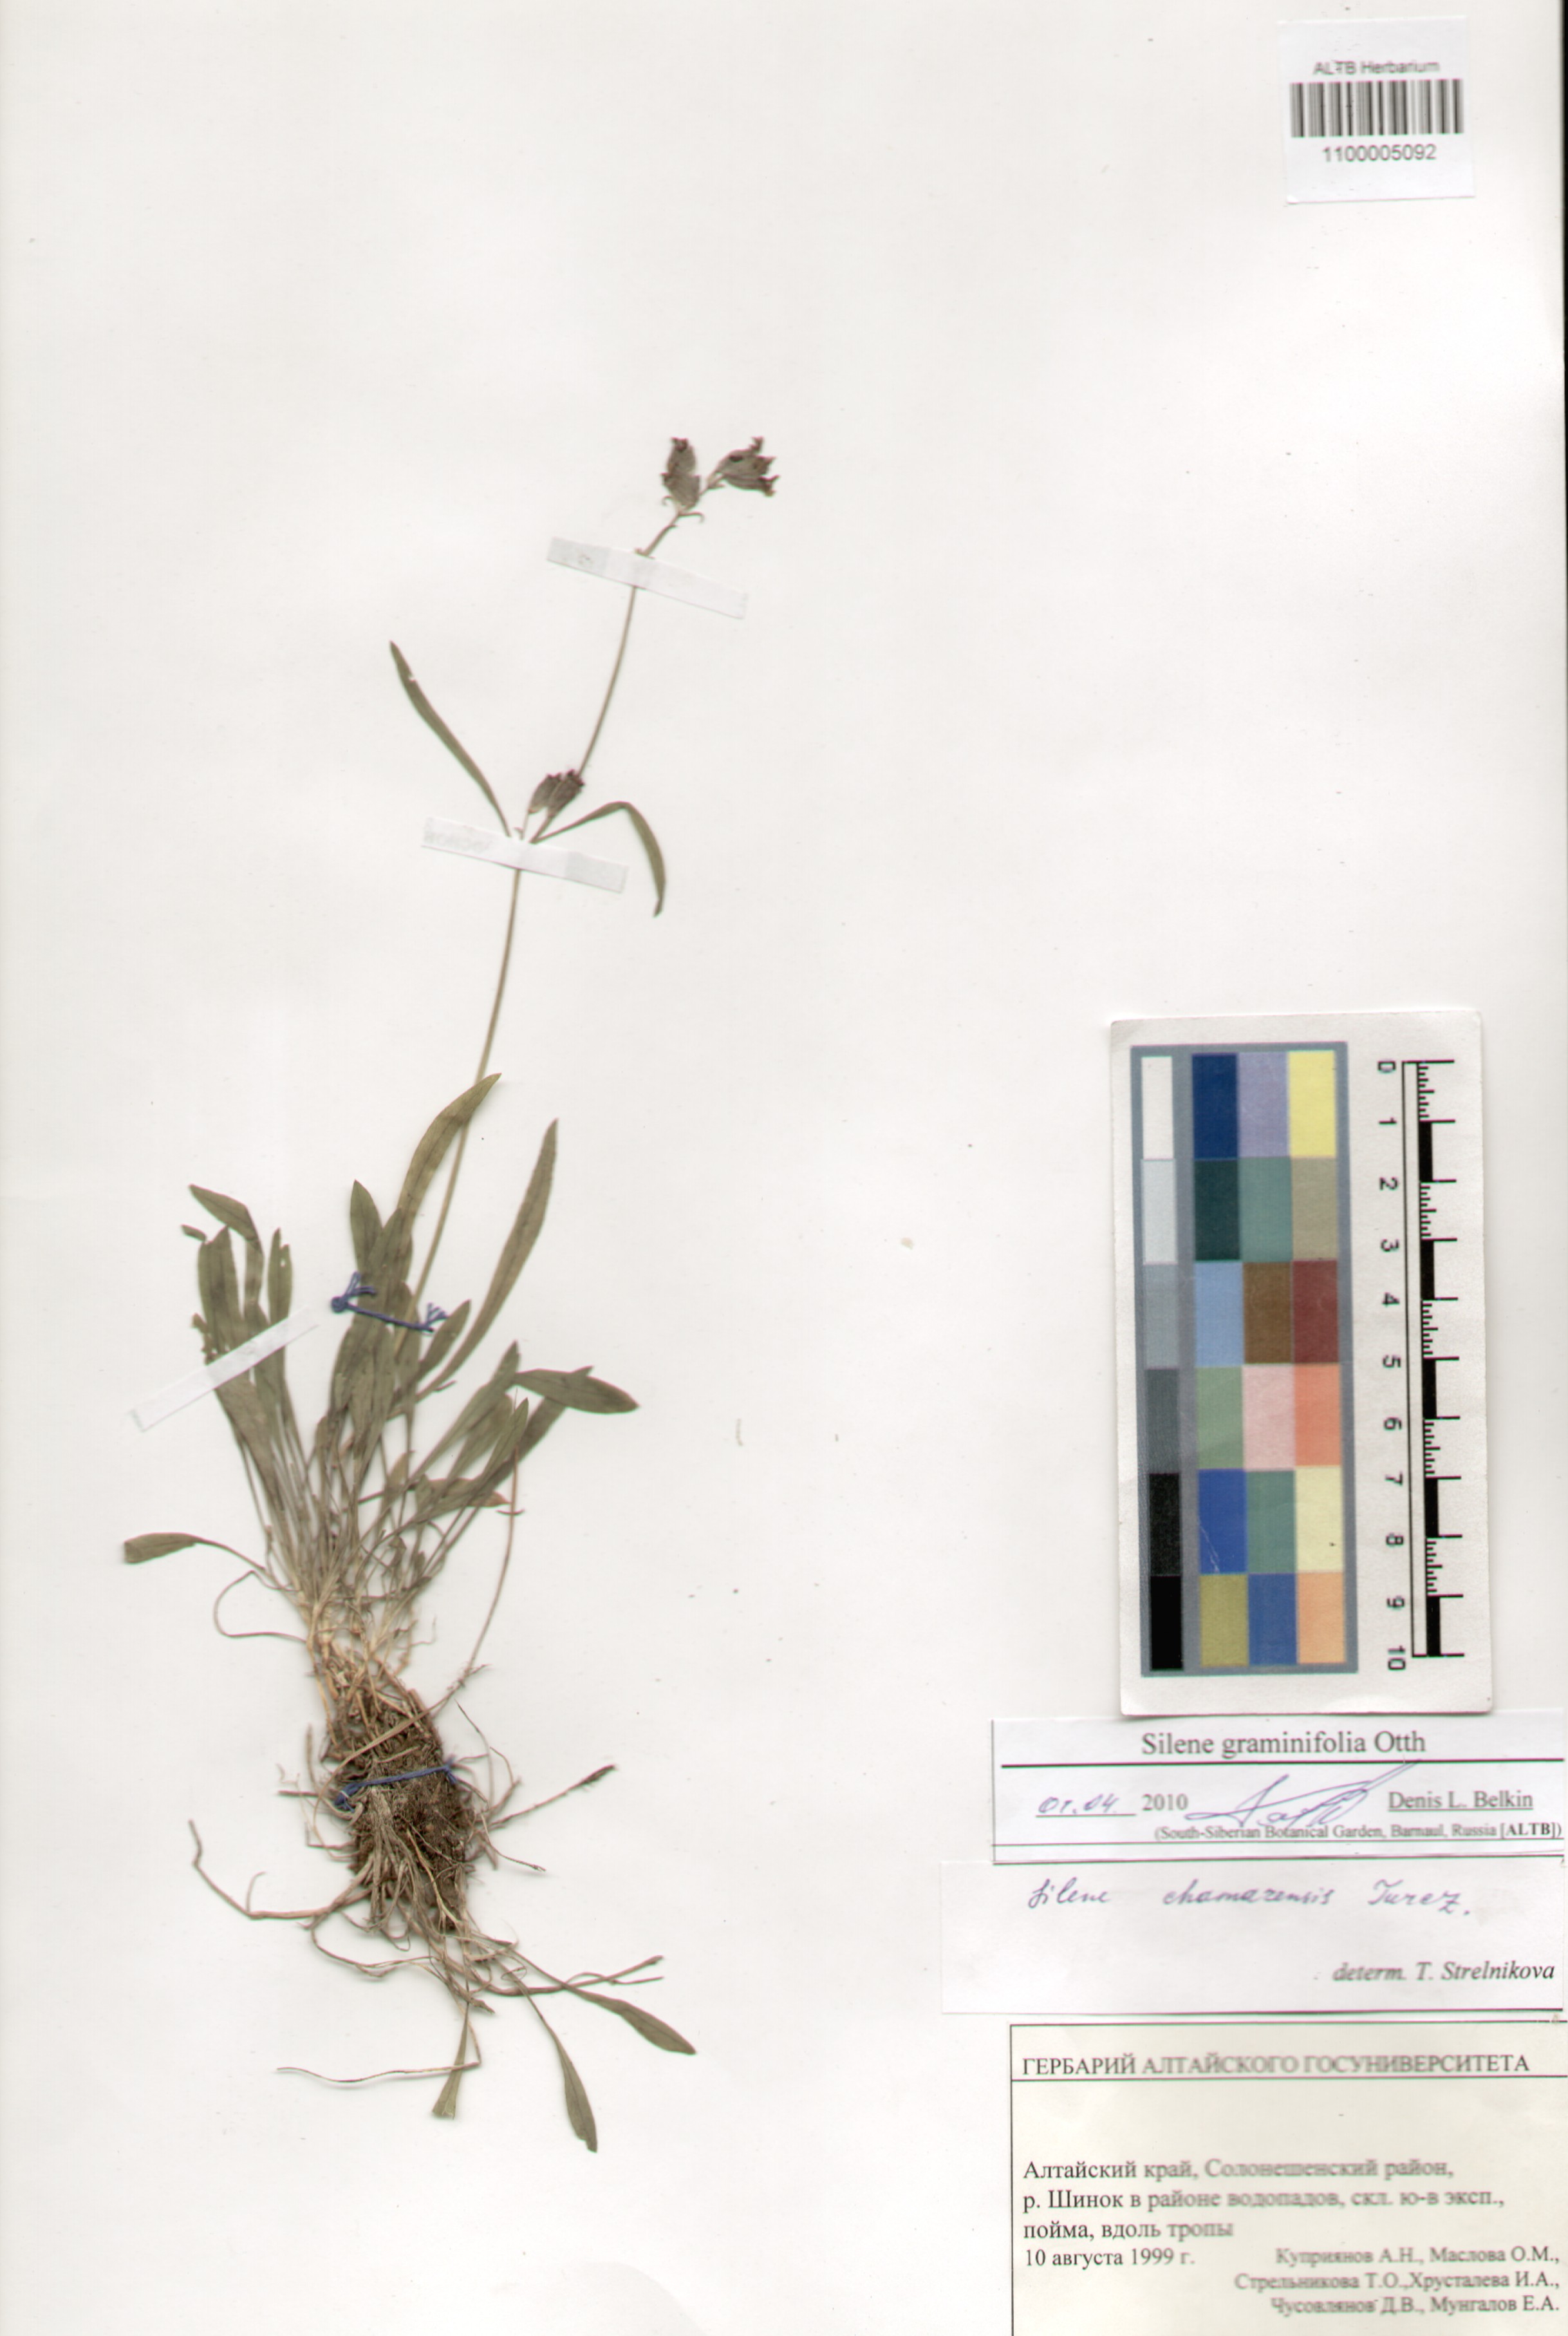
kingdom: Plantae
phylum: Tracheophyta
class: Magnoliopsida
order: Caryophyllales
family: Caryophyllaceae
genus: Silene
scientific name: Silene graminifolia
